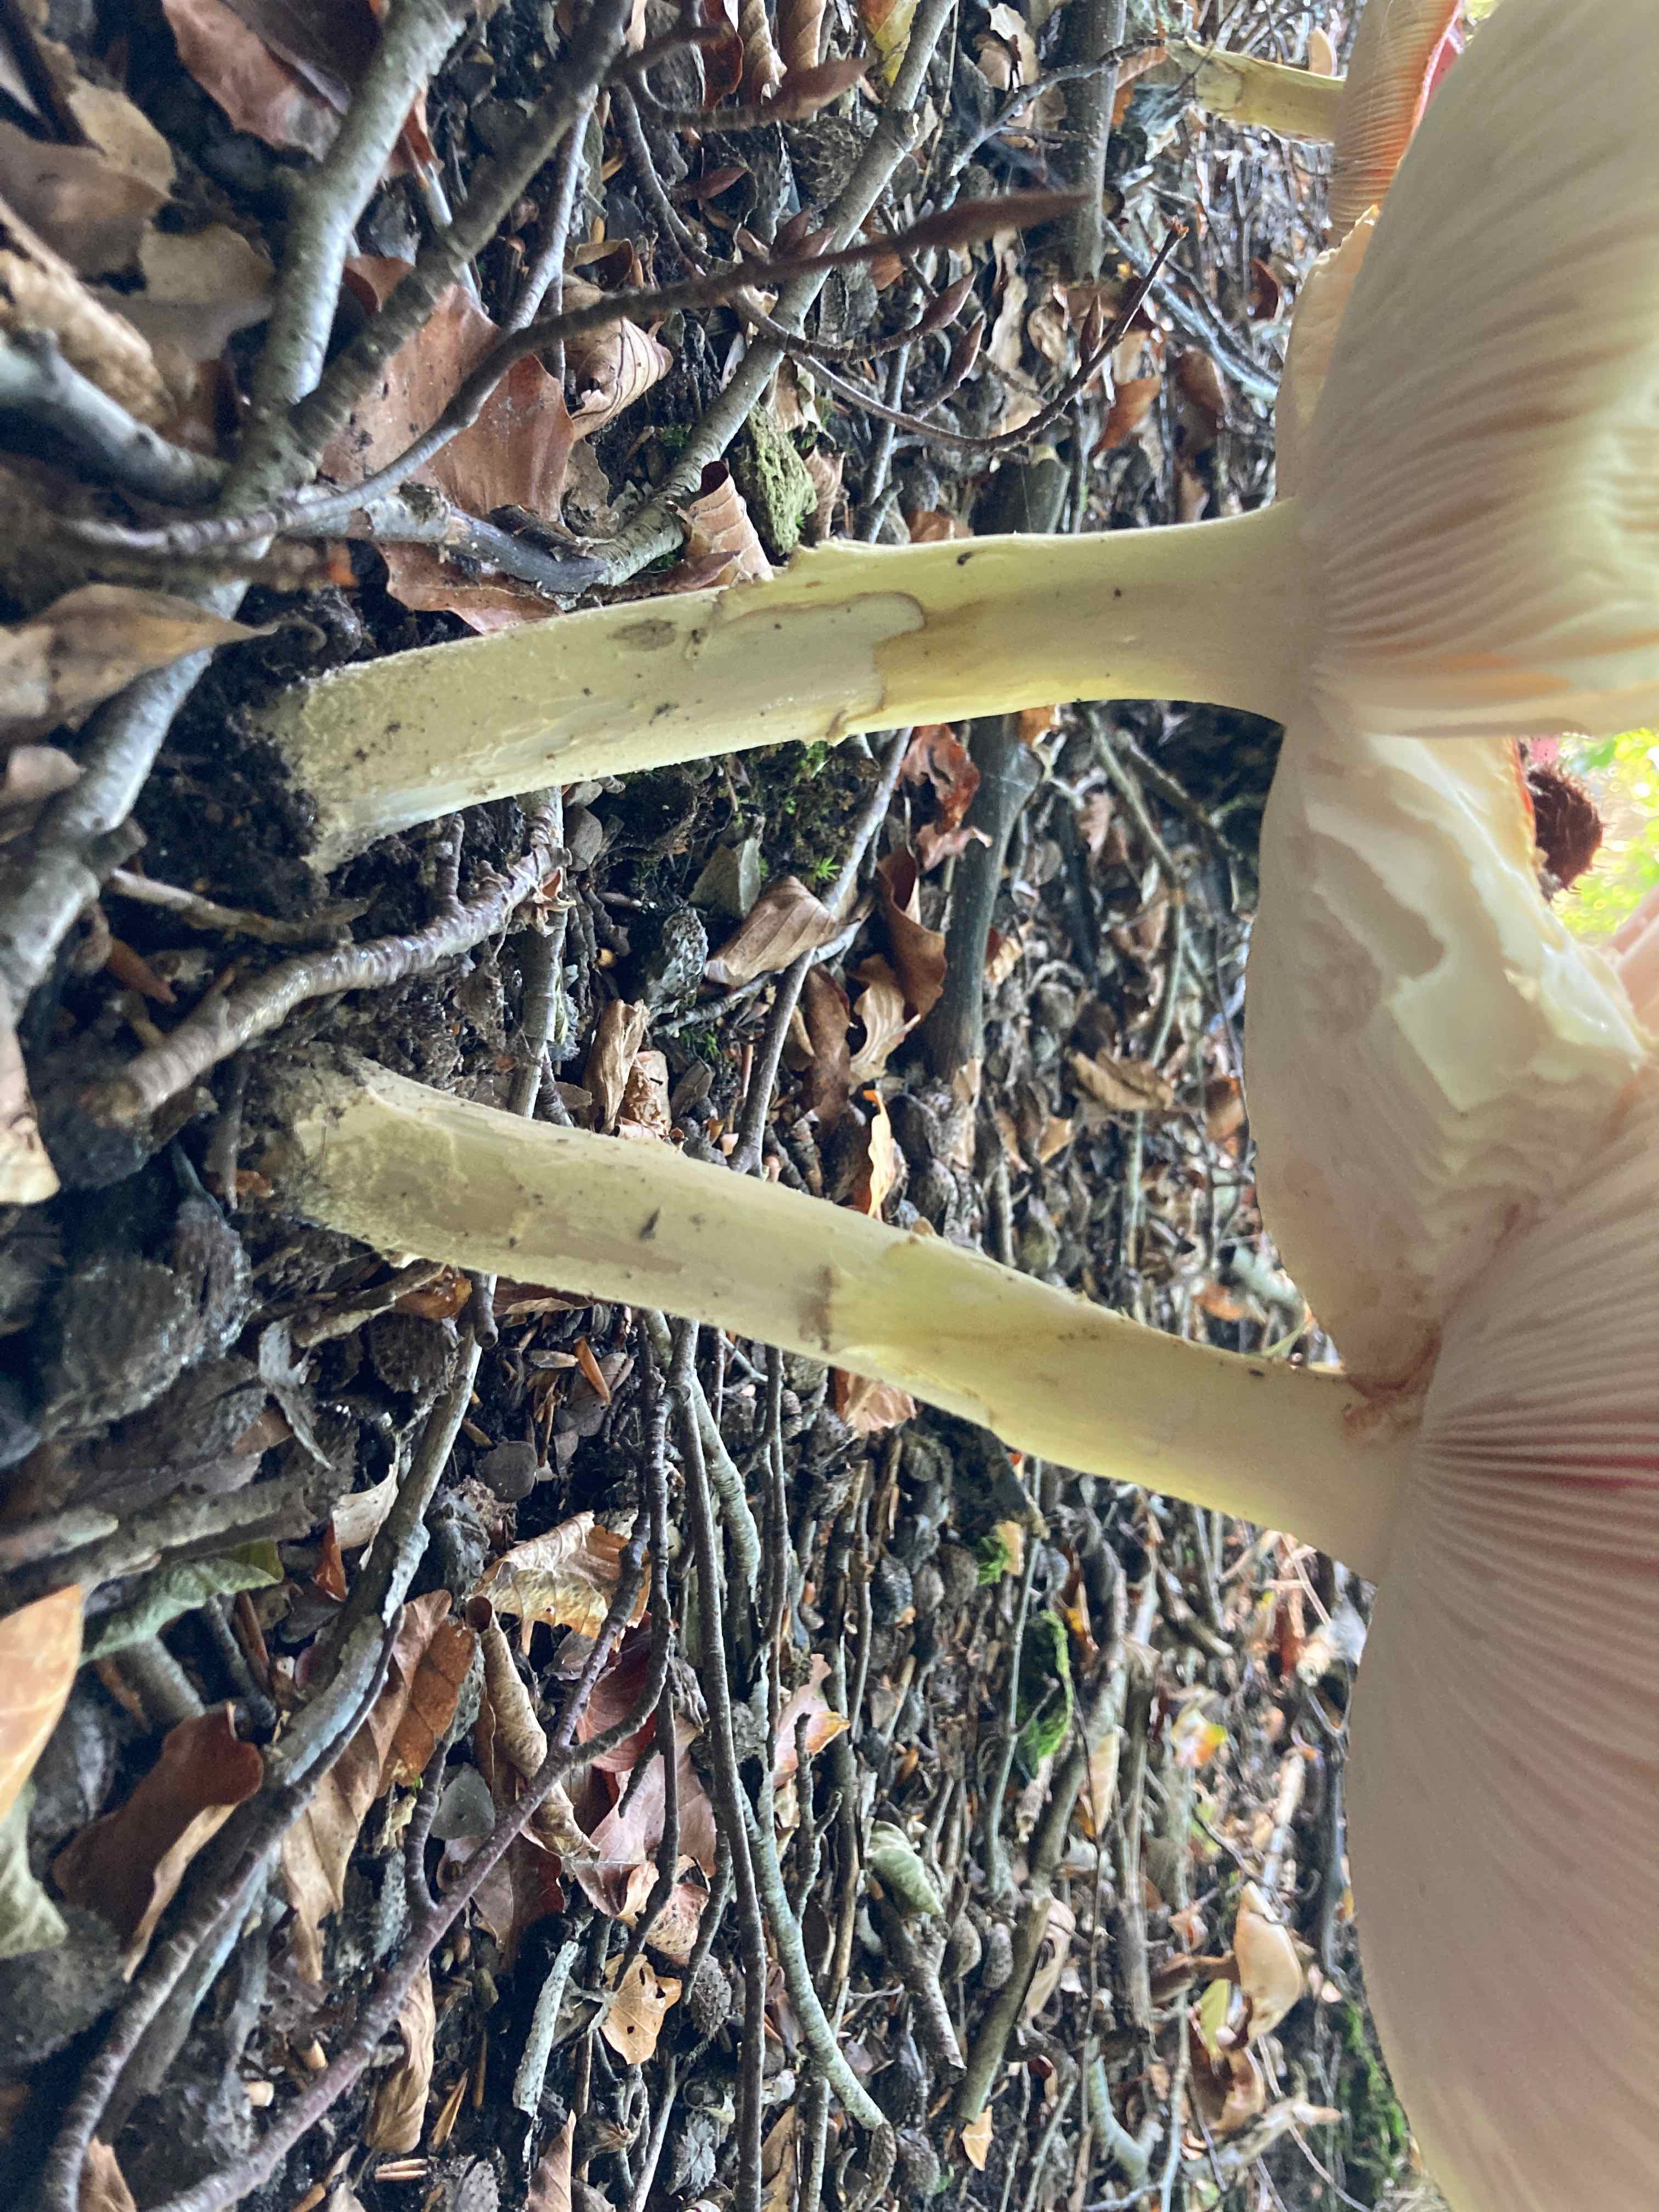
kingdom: Fungi
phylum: Basidiomycota
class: Agaricomycetes
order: Agaricales
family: Amanitaceae
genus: Amanita
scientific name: Amanita muscaria
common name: rød fluesvamp
